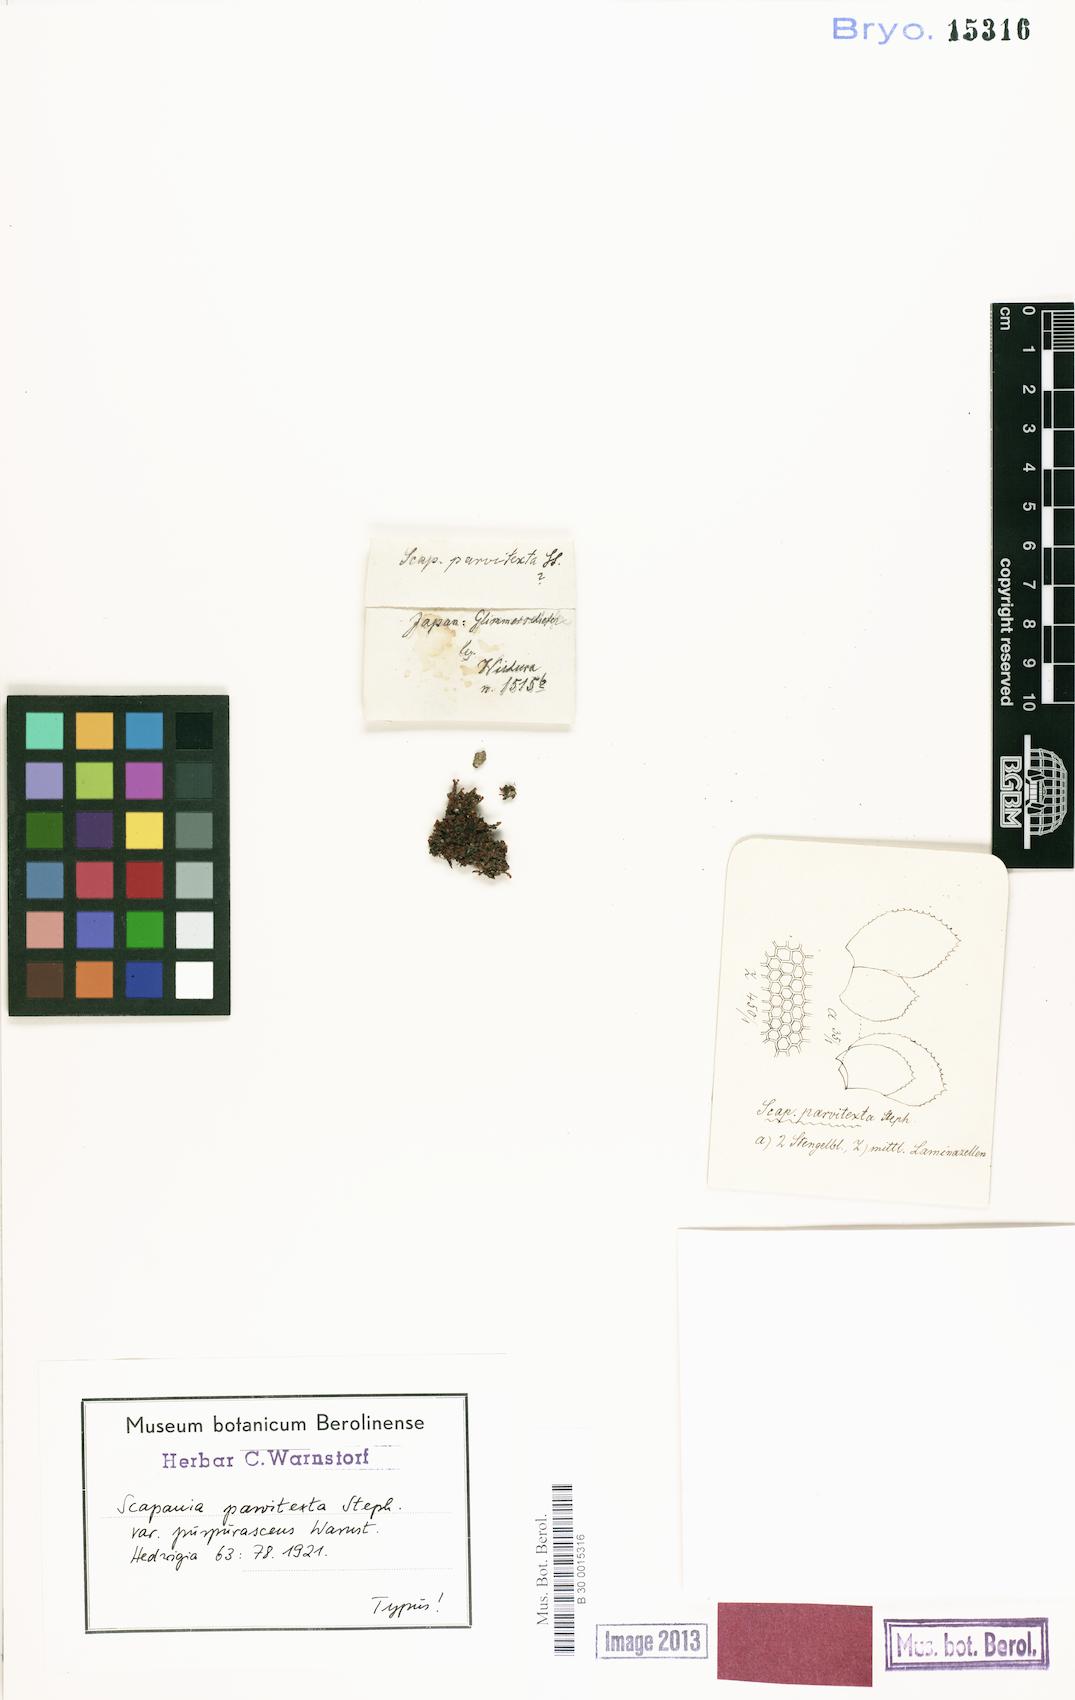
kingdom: Plantae
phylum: Marchantiophyta
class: Jungermanniopsida
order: Jungermanniales
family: Scapaniaceae
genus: Scapania
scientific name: Scapania parvitexta
